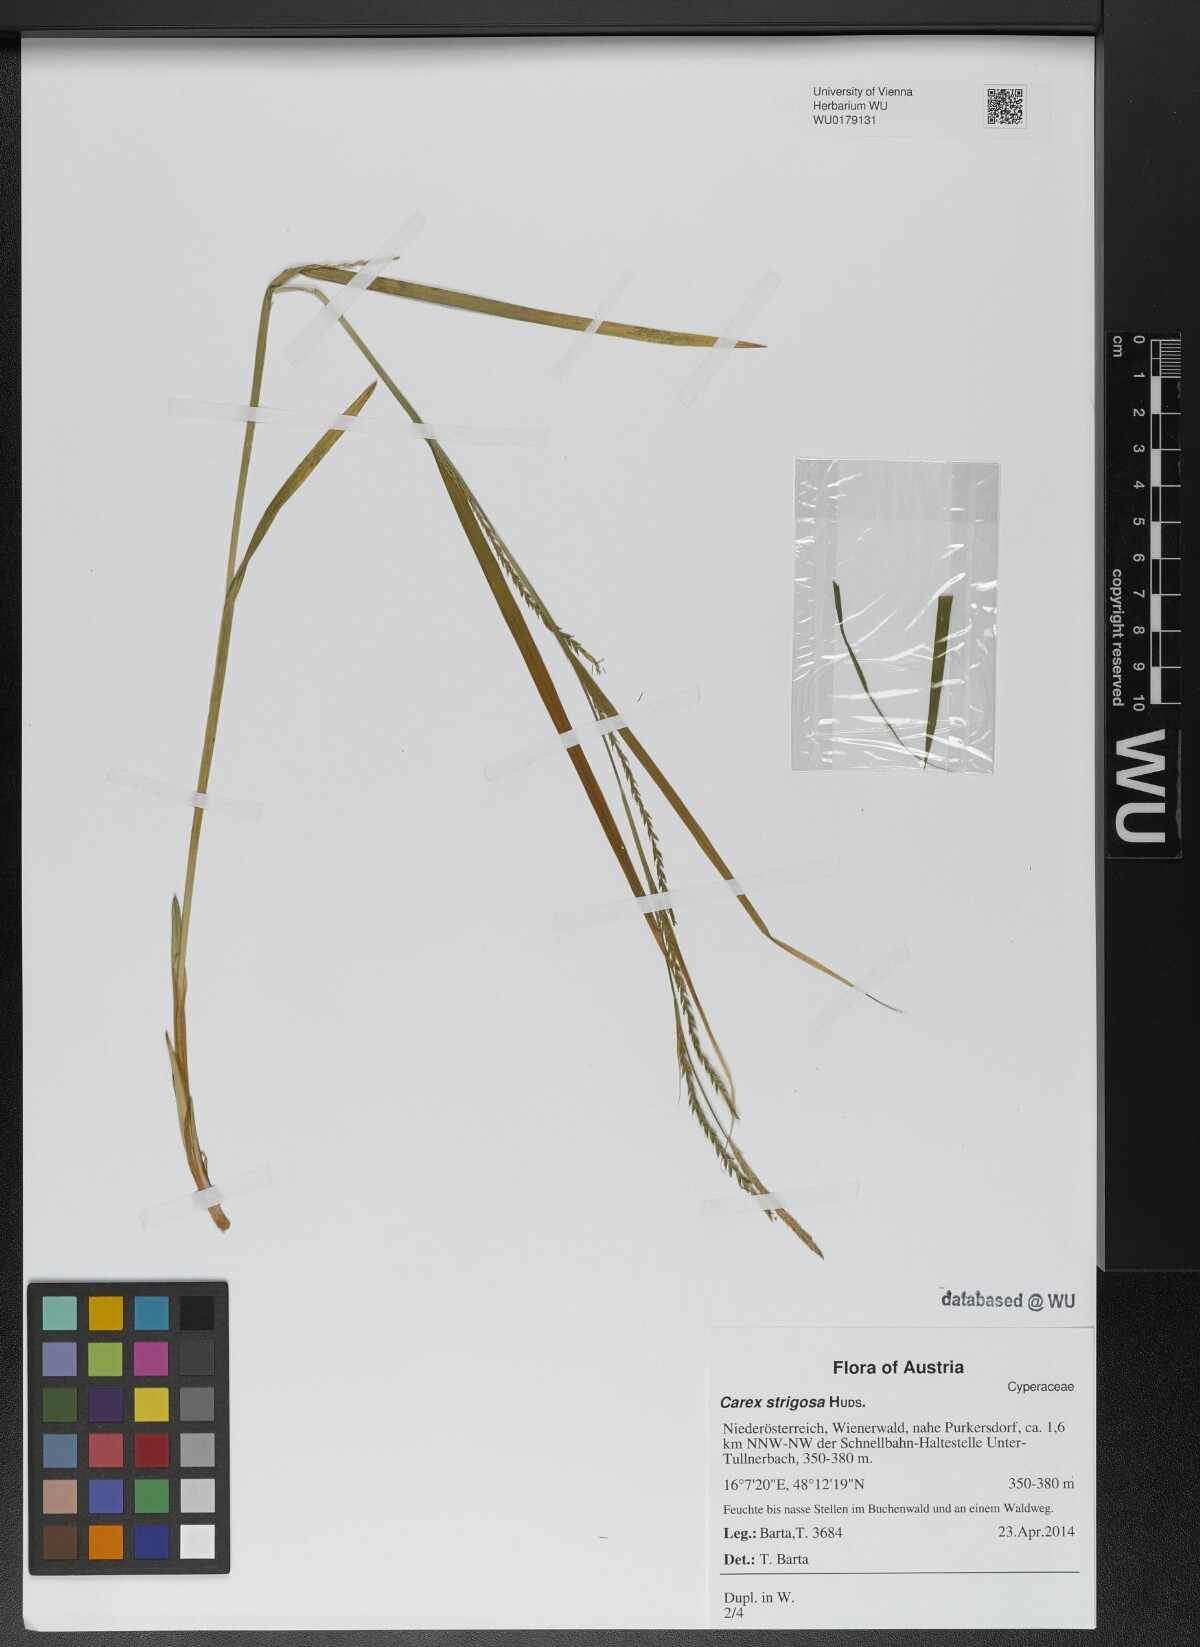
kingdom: Plantae
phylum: Tracheophyta
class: Liliopsida
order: Poales
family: Cyperaceae
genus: Carex
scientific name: Carex strigosa
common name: Thin-spiked wood-sedge
